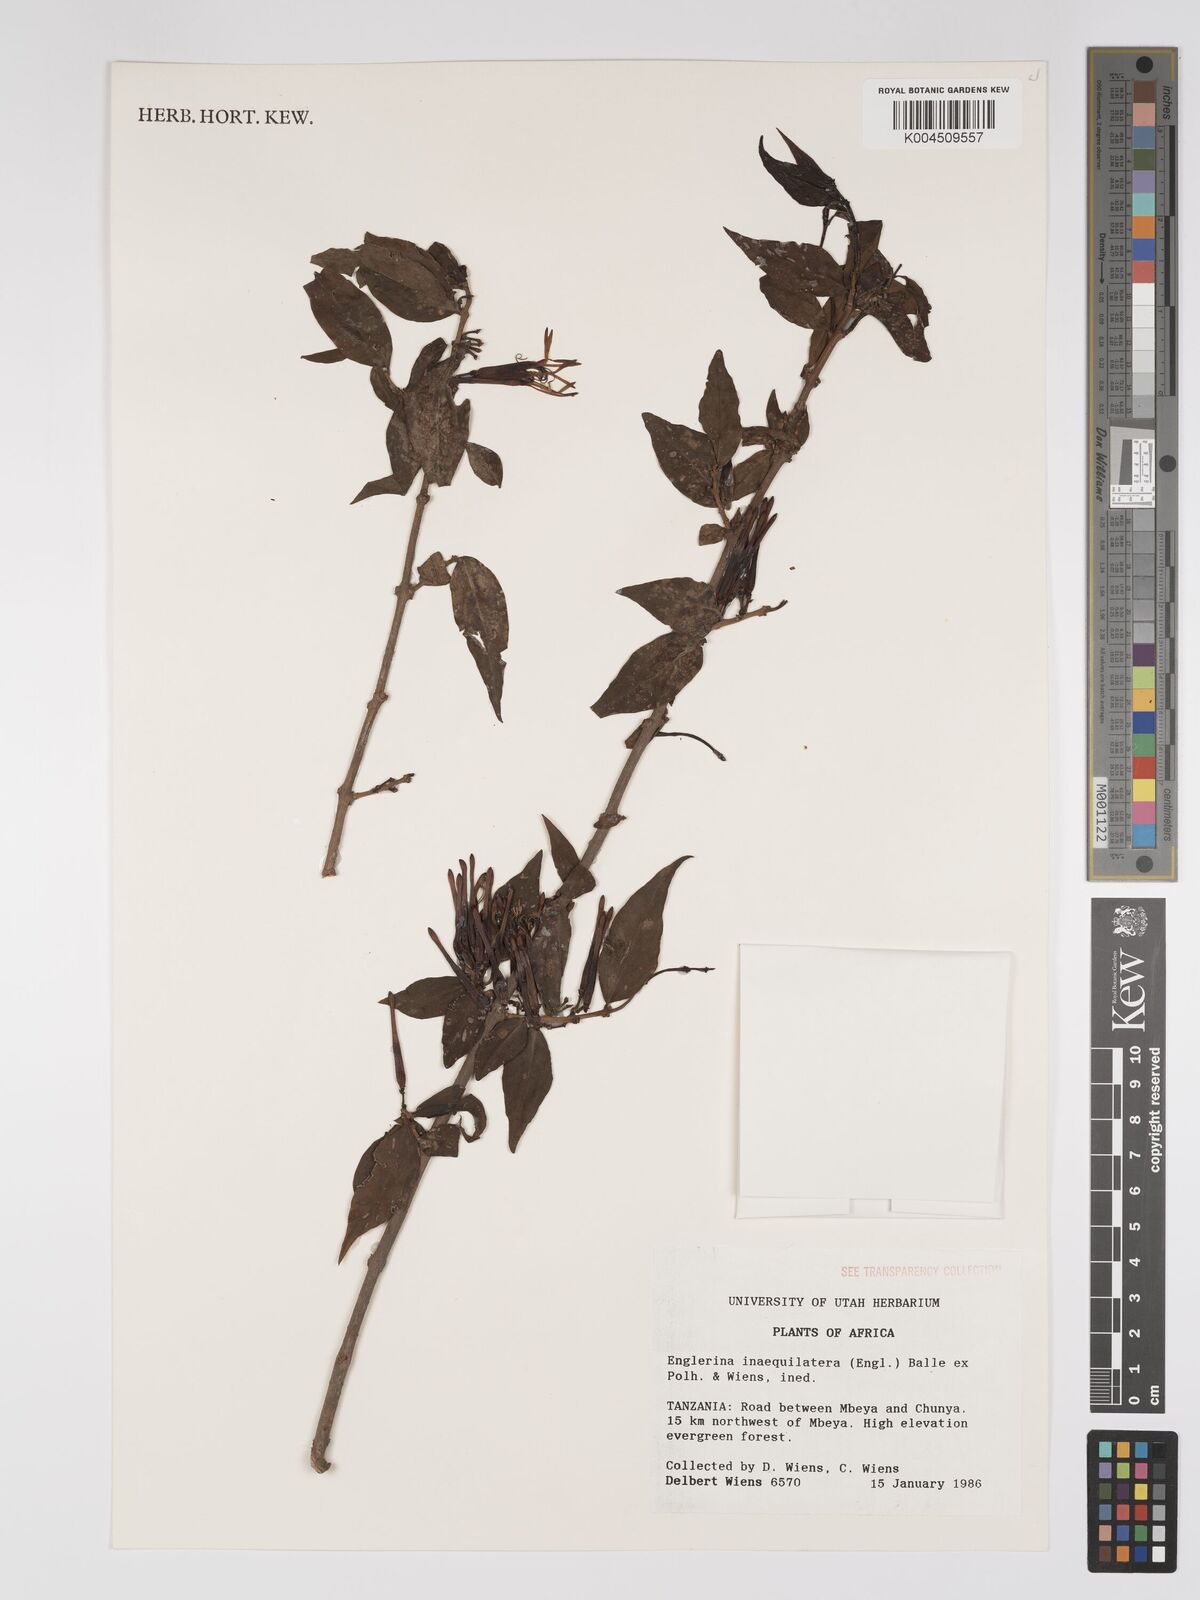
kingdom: Plantae
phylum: Tracheophyta
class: Magnoliopsida
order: Santalales
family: Loranthaceae
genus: Englerina
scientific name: Englerina inaequilatera
